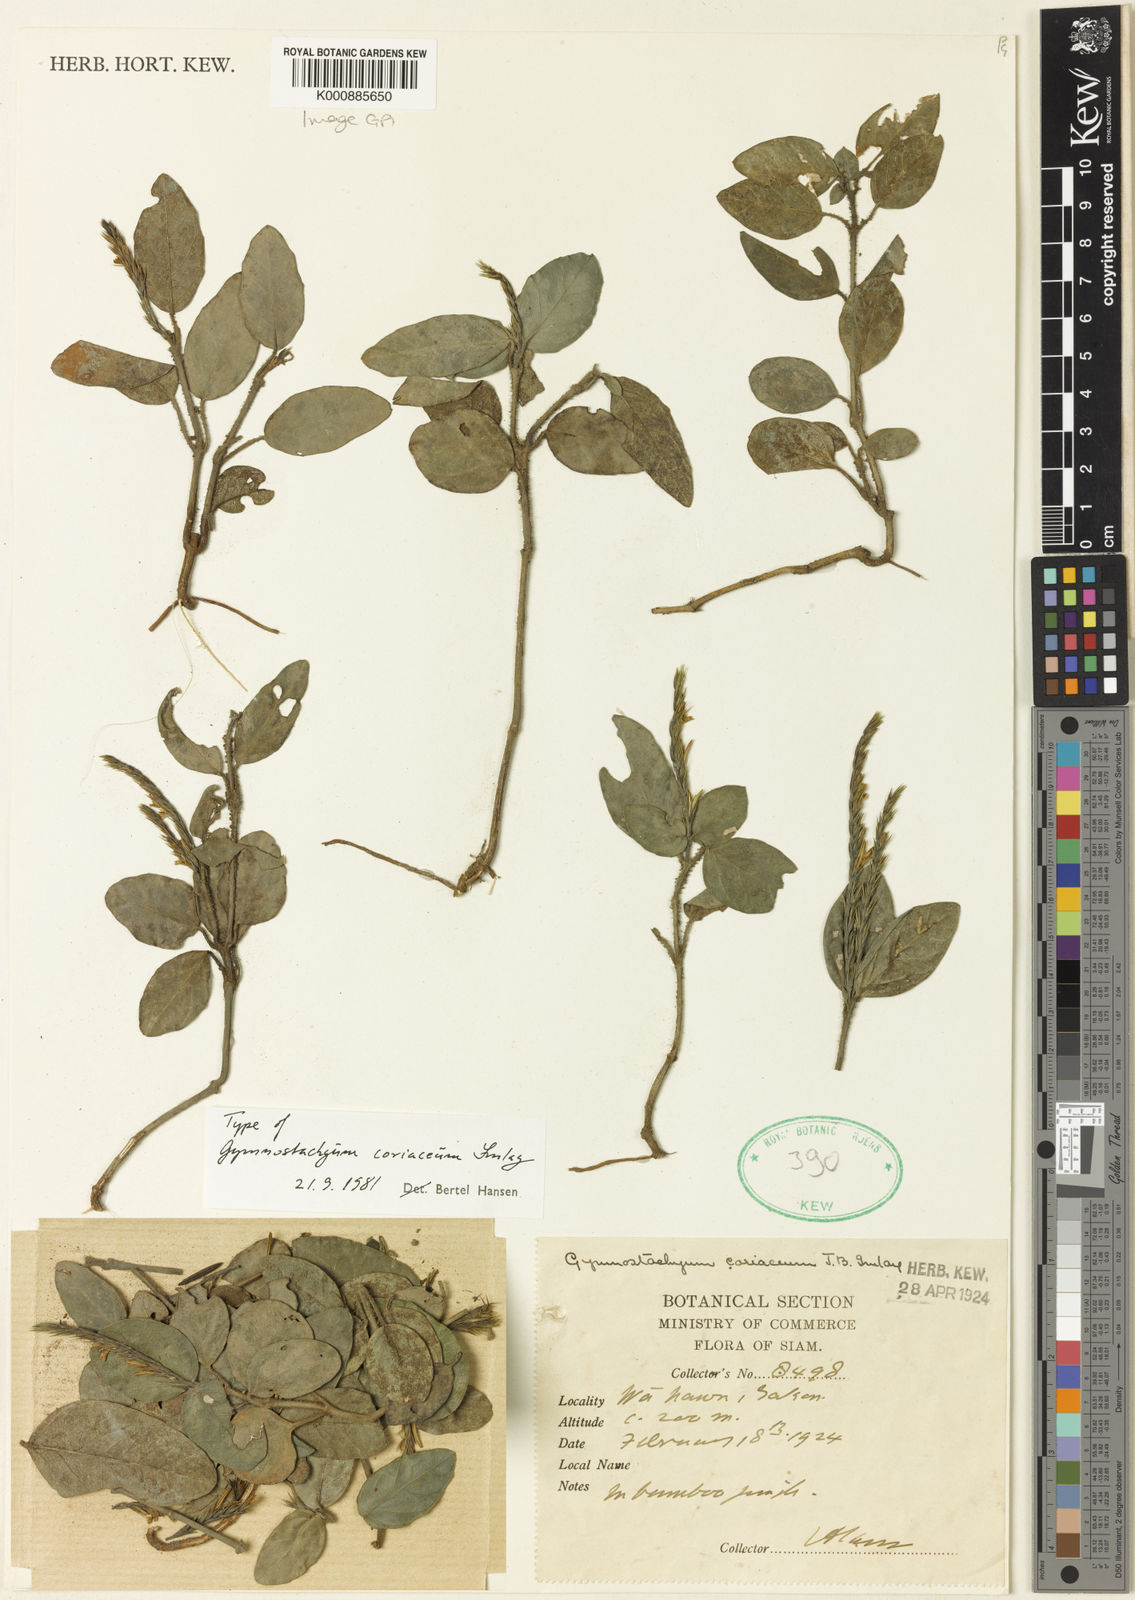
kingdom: Plantae
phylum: Tracheophyta
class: Magnoliopsida
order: Lamiales
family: Acanthaceae
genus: Gymnostachyum
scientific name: Gymnostachyum coriaceum
